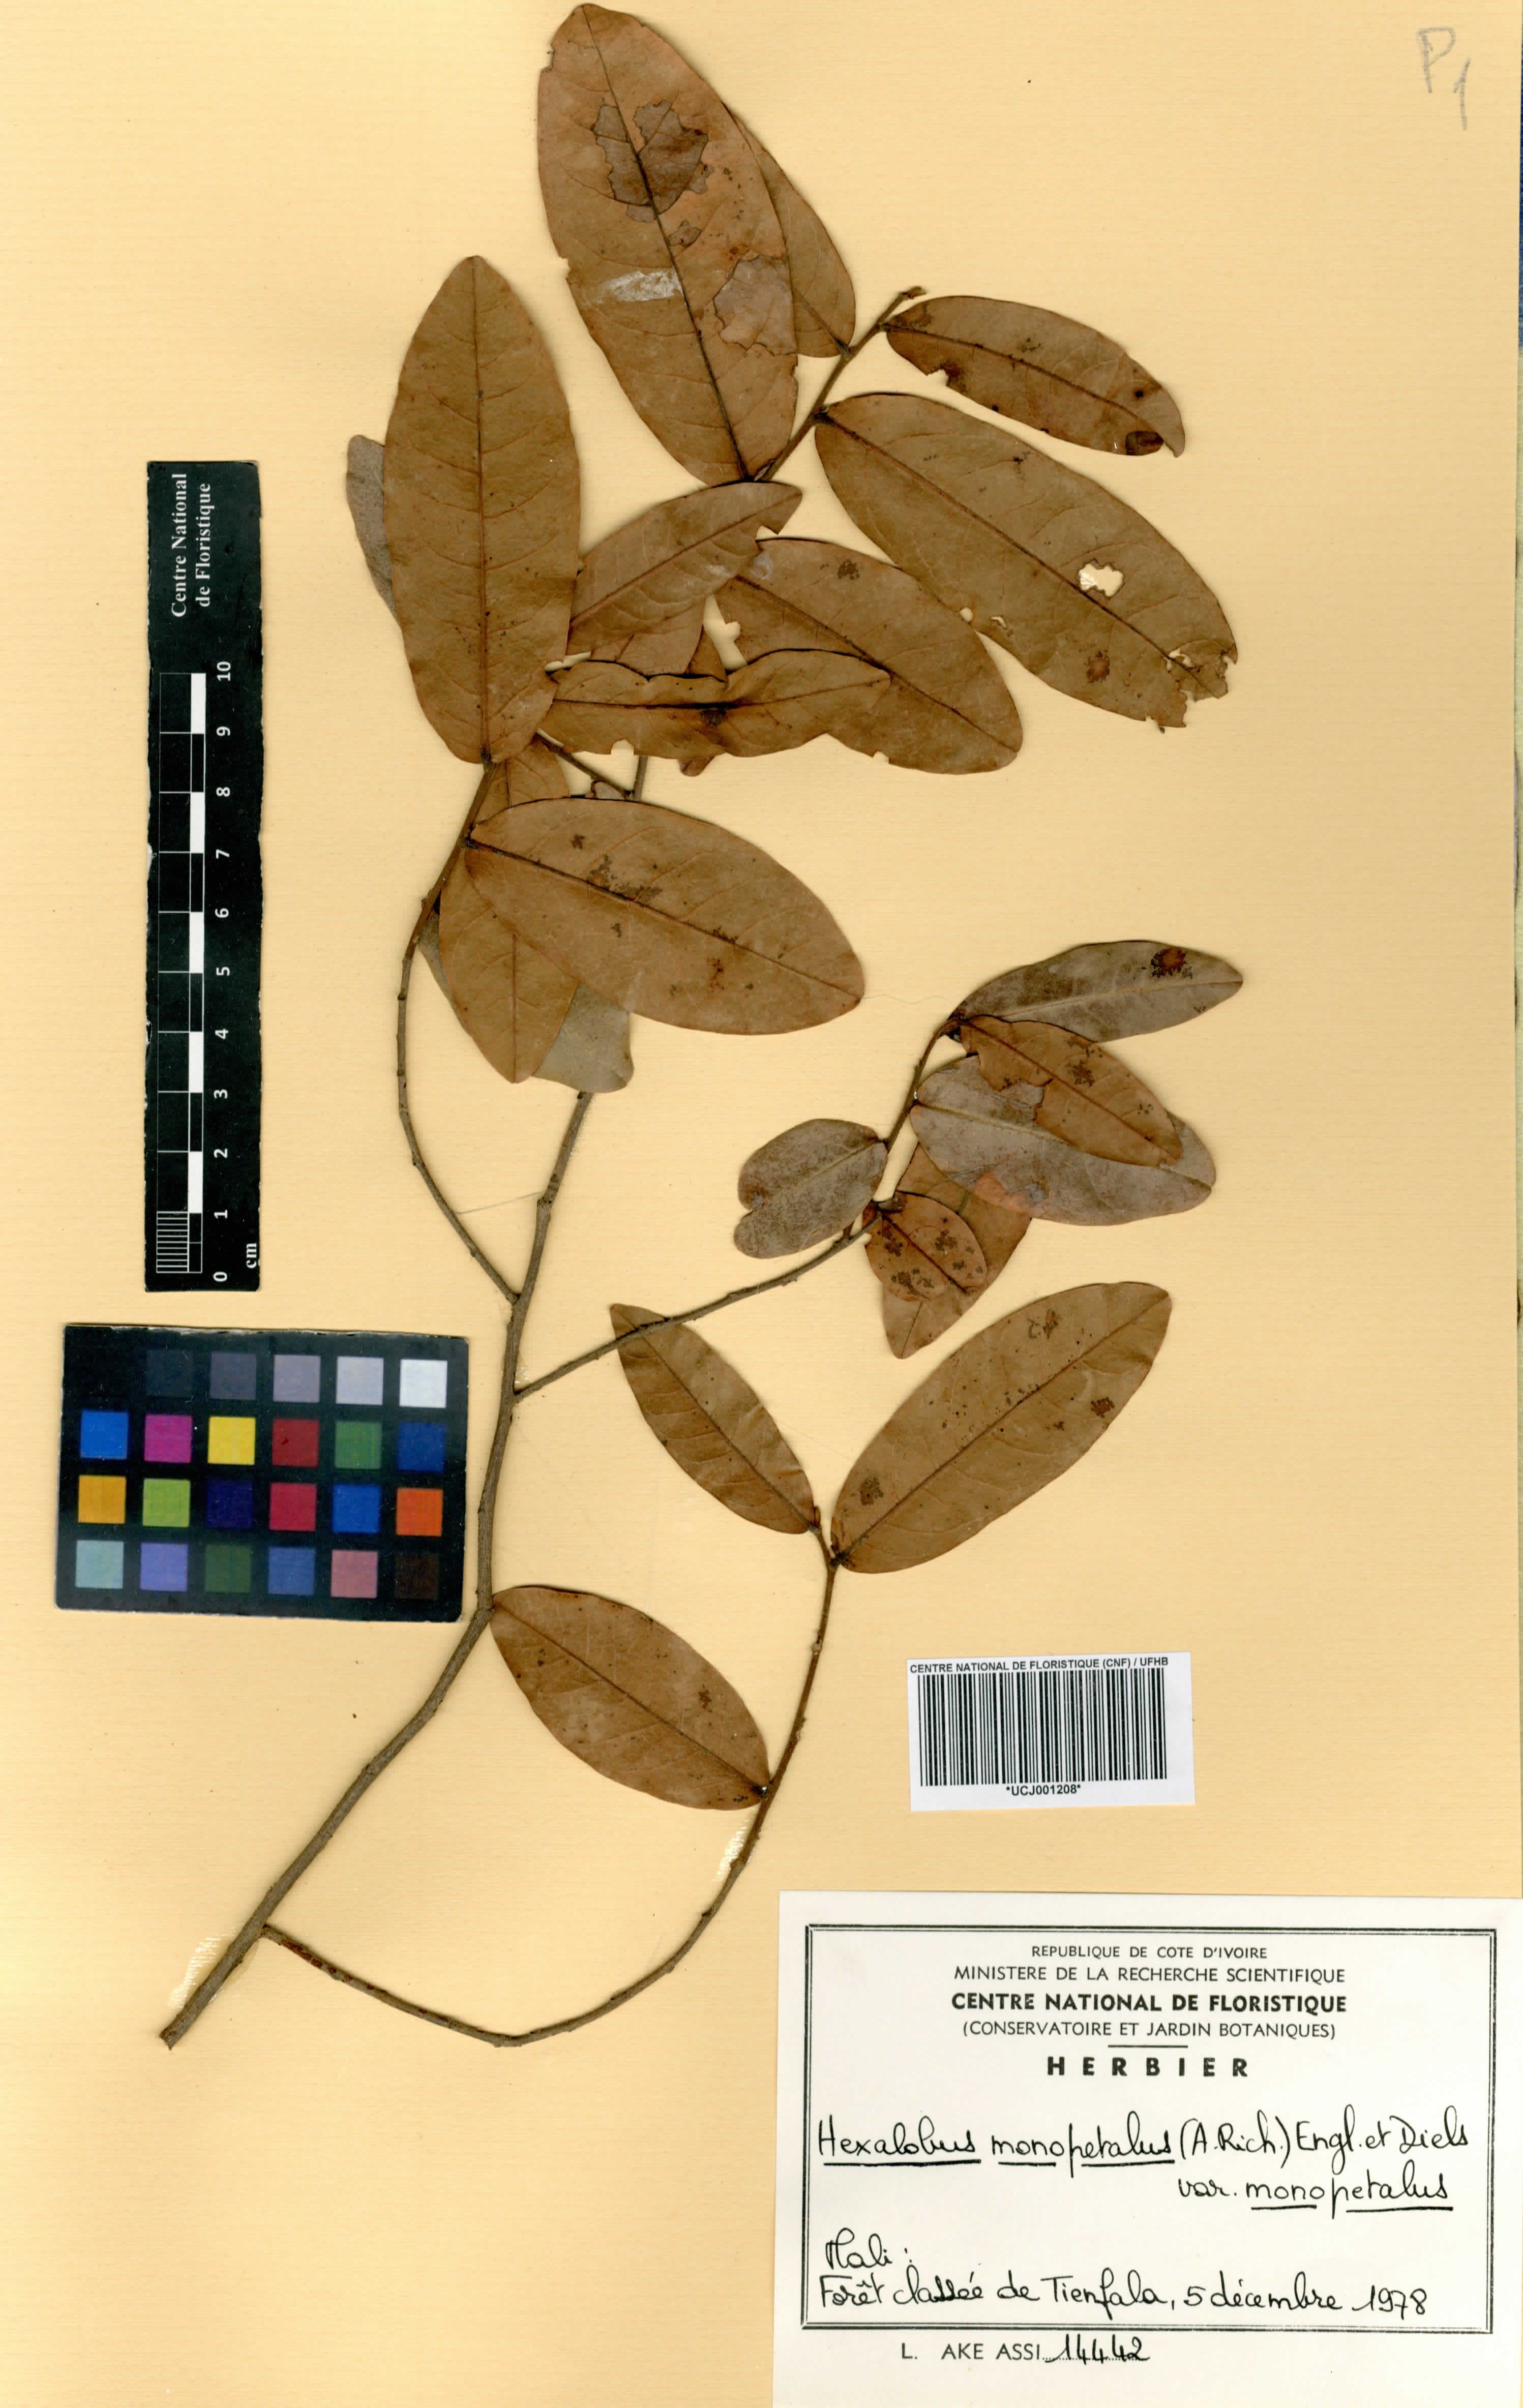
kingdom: Plantae
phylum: Tracheophyta
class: Magnoliopsida
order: Magnoliales
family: Annonaceae
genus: Hexalobus
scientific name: Hexalobus monopetalus
